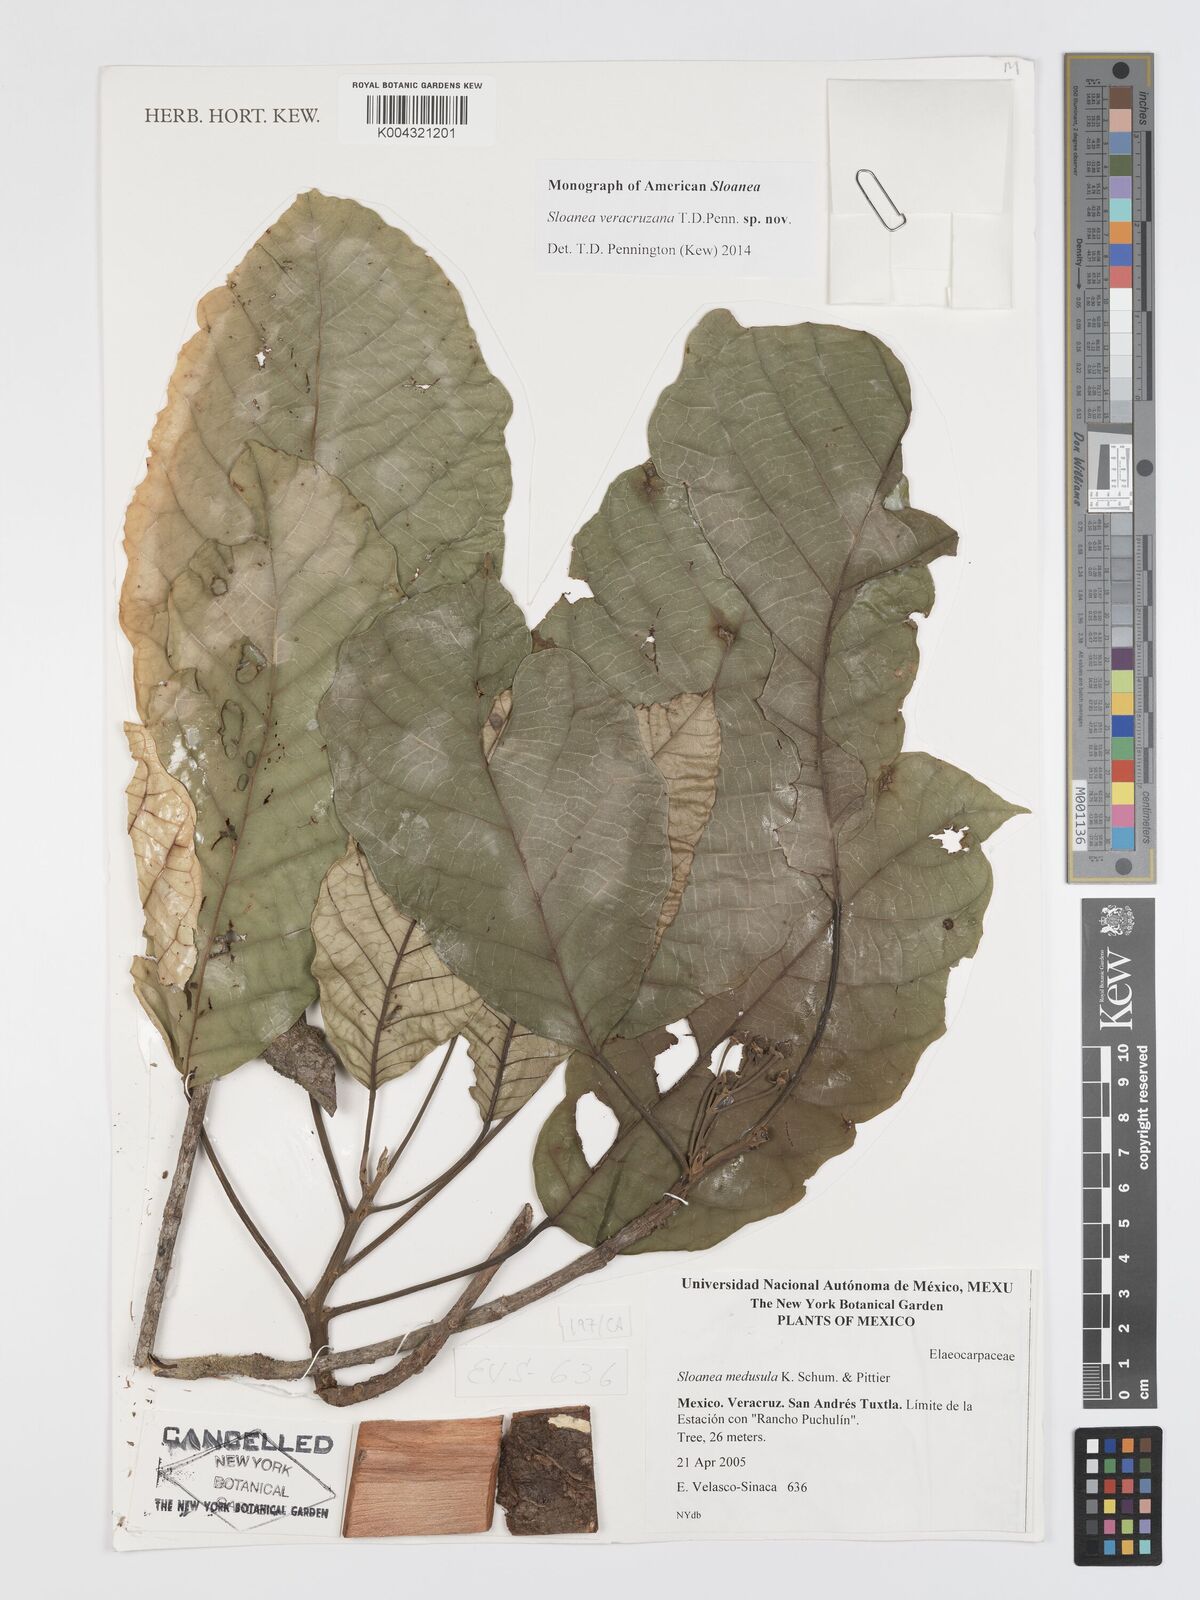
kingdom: Plantae
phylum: Tracheophyta
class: Magnoliopsida
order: Oxalidales
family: Elaeocarpaceae
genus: Sloanea
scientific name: Sloanea veracruzana
